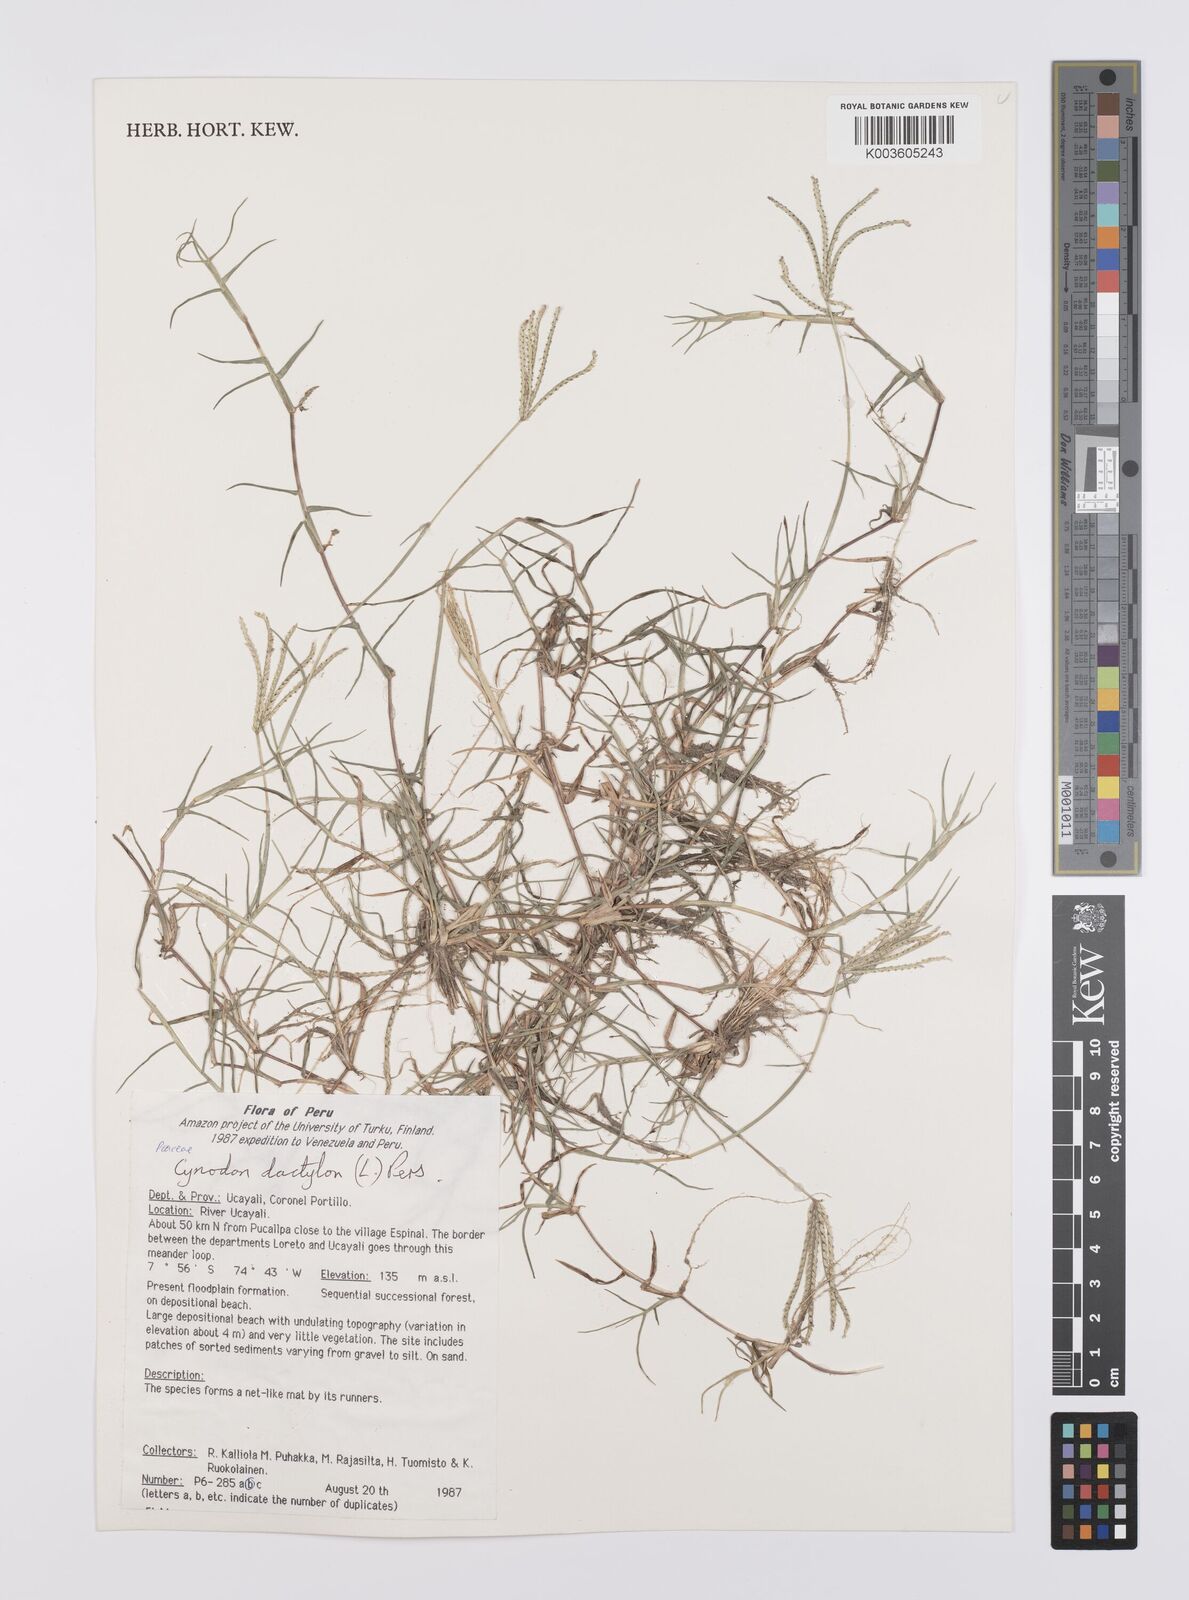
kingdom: Plantae
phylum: Tracheophyta
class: Liliopsida
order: Poales
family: Poaceae
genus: Cynodon
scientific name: Cynodon dactylon
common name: Bermuda grass
